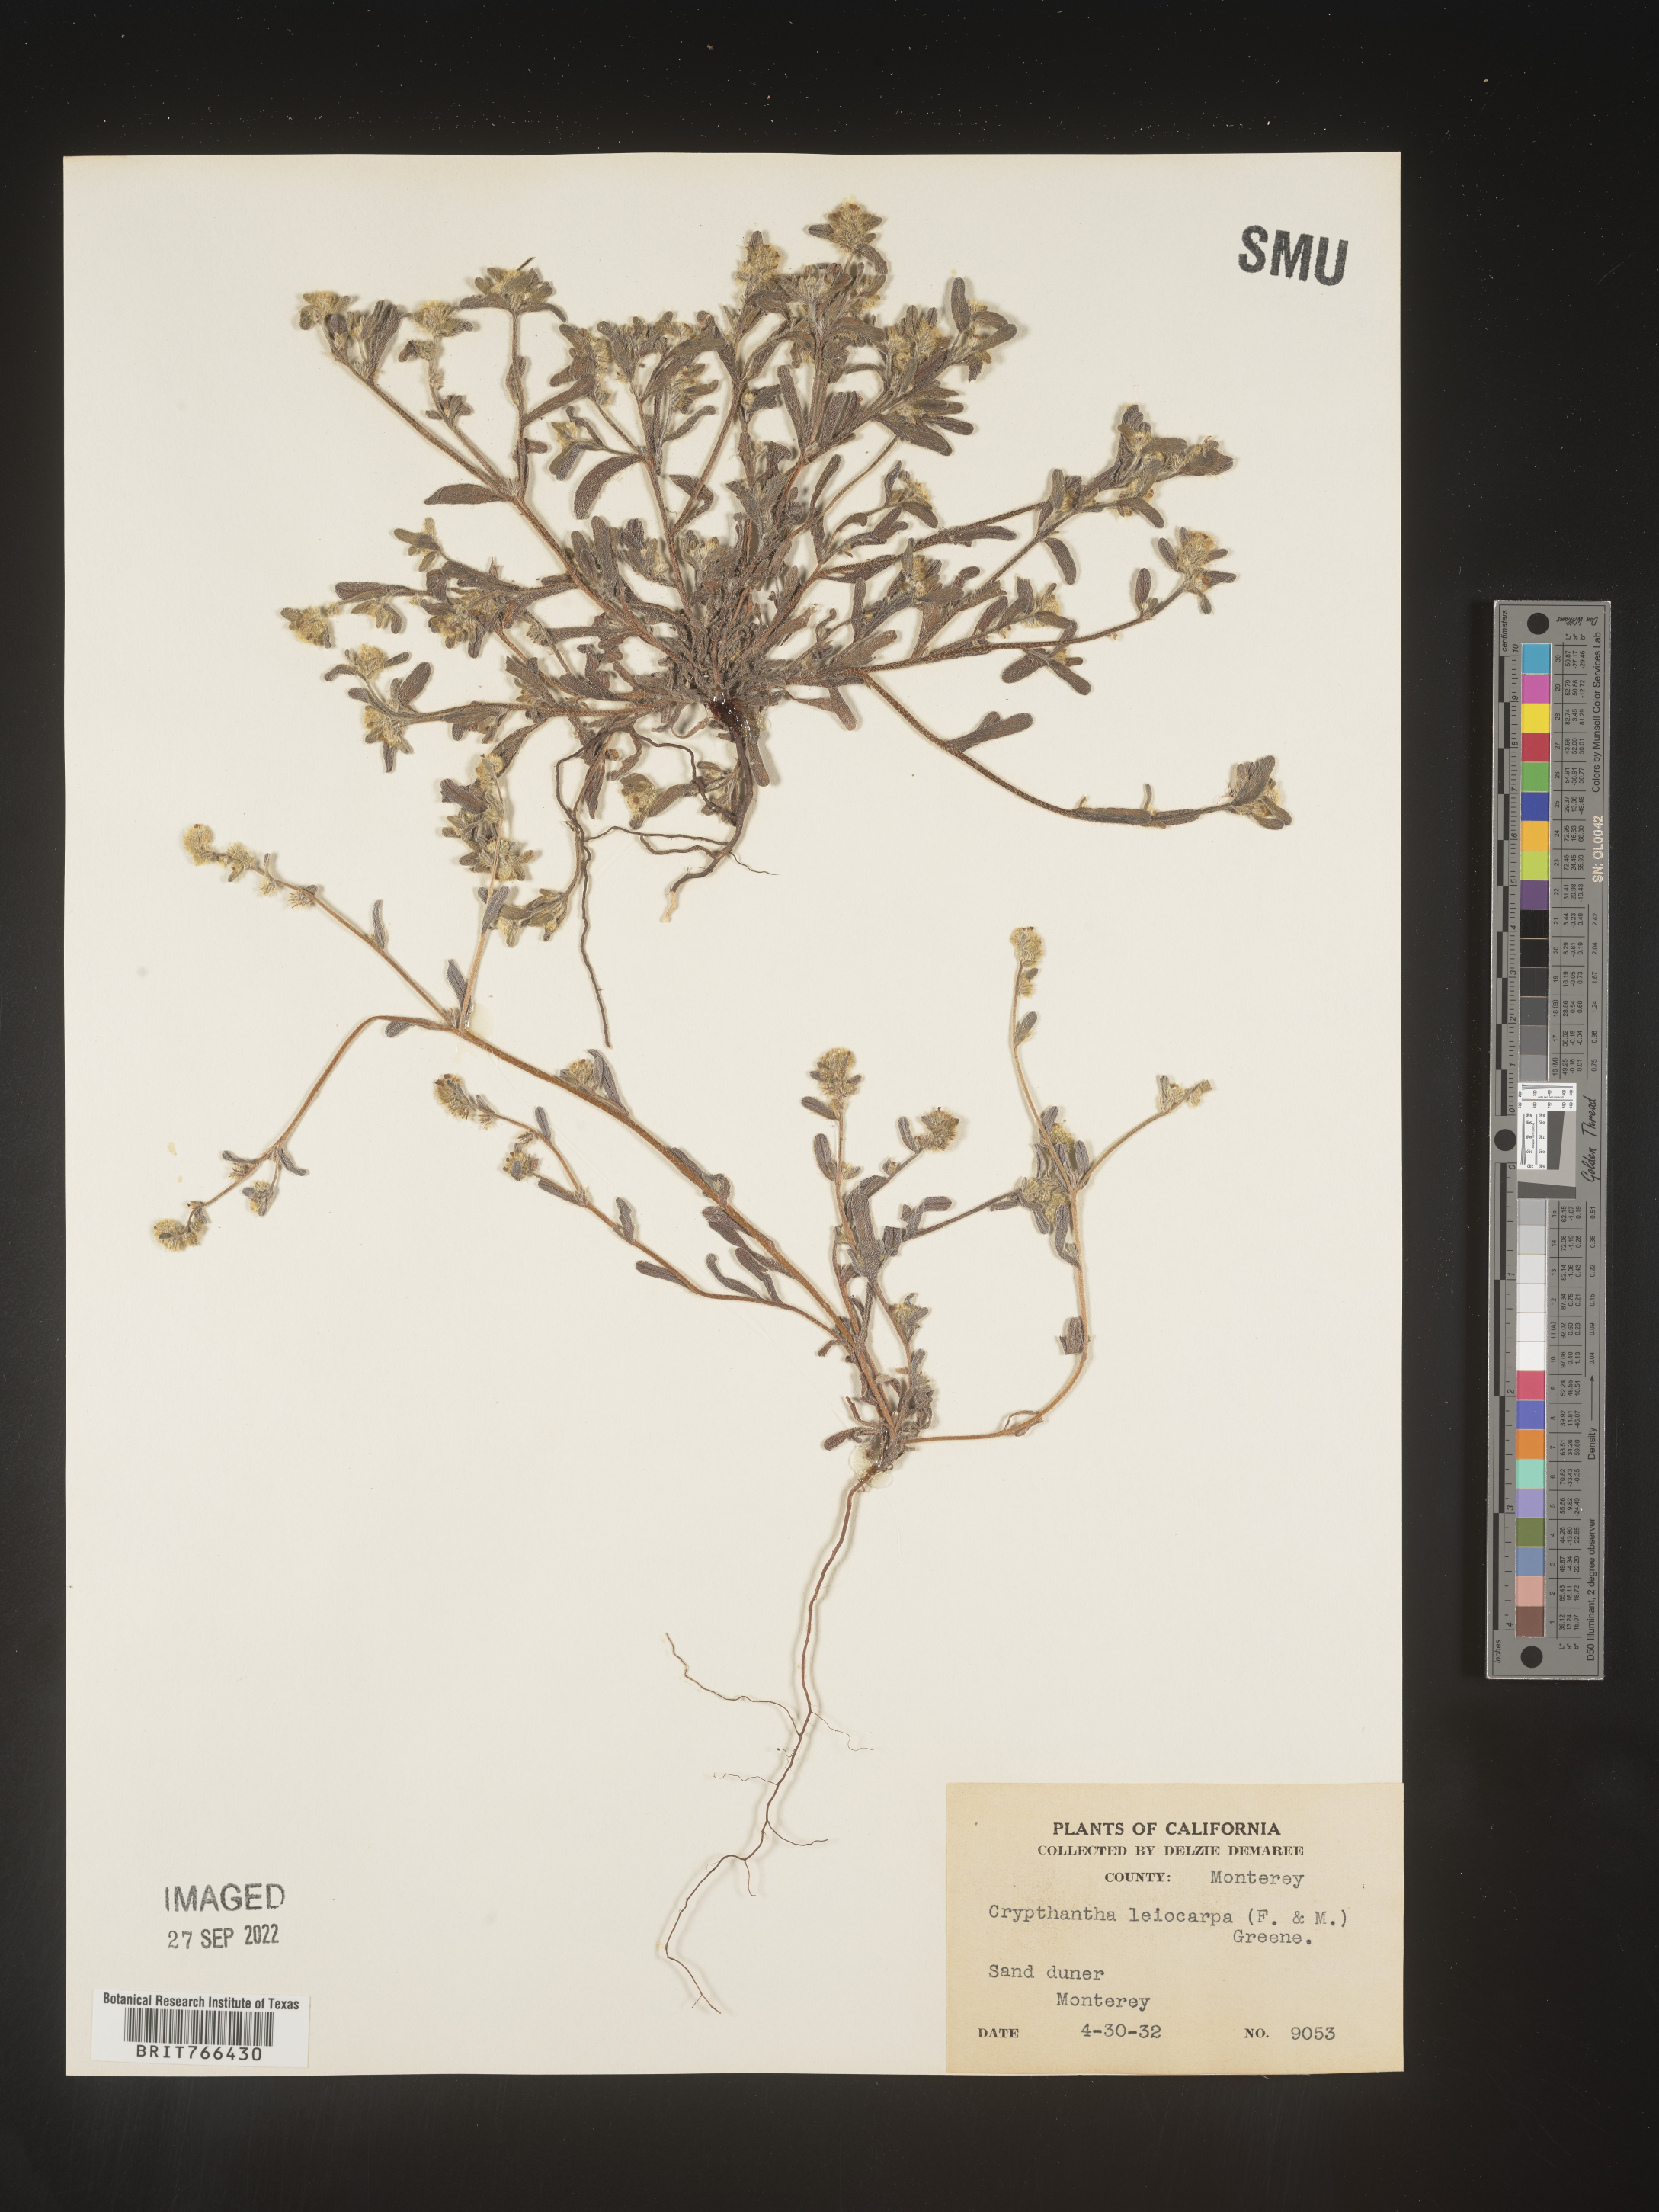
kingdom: Plantae
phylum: Tracheophyta
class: Magnoliopsida
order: Boraginales
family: Boraginaceae
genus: Cryptantha
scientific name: Cryptantha
